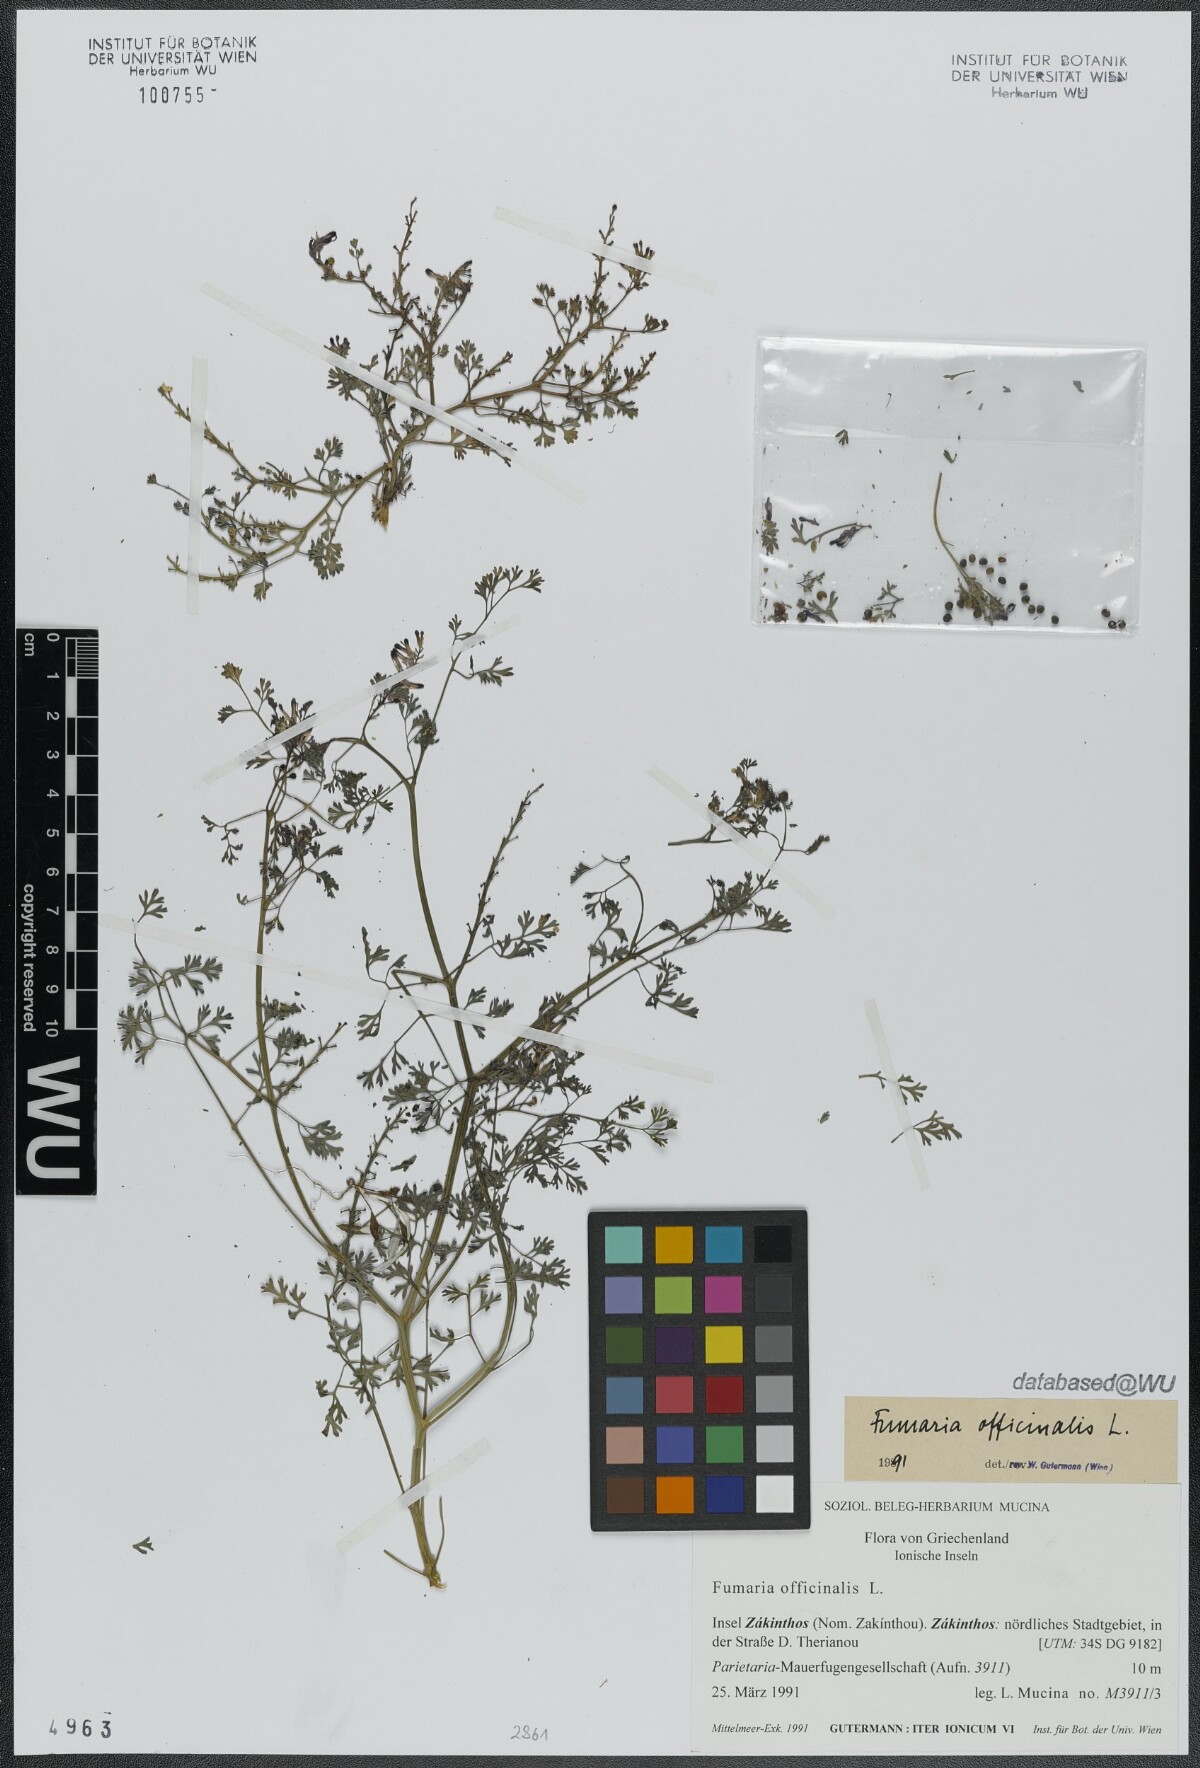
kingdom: Plantae
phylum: Tracheophyta
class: Magnoliopsida
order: Ranunculales
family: Papaveraceae
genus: Fumaria
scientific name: Fumaria officinalis
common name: Common fumitory
